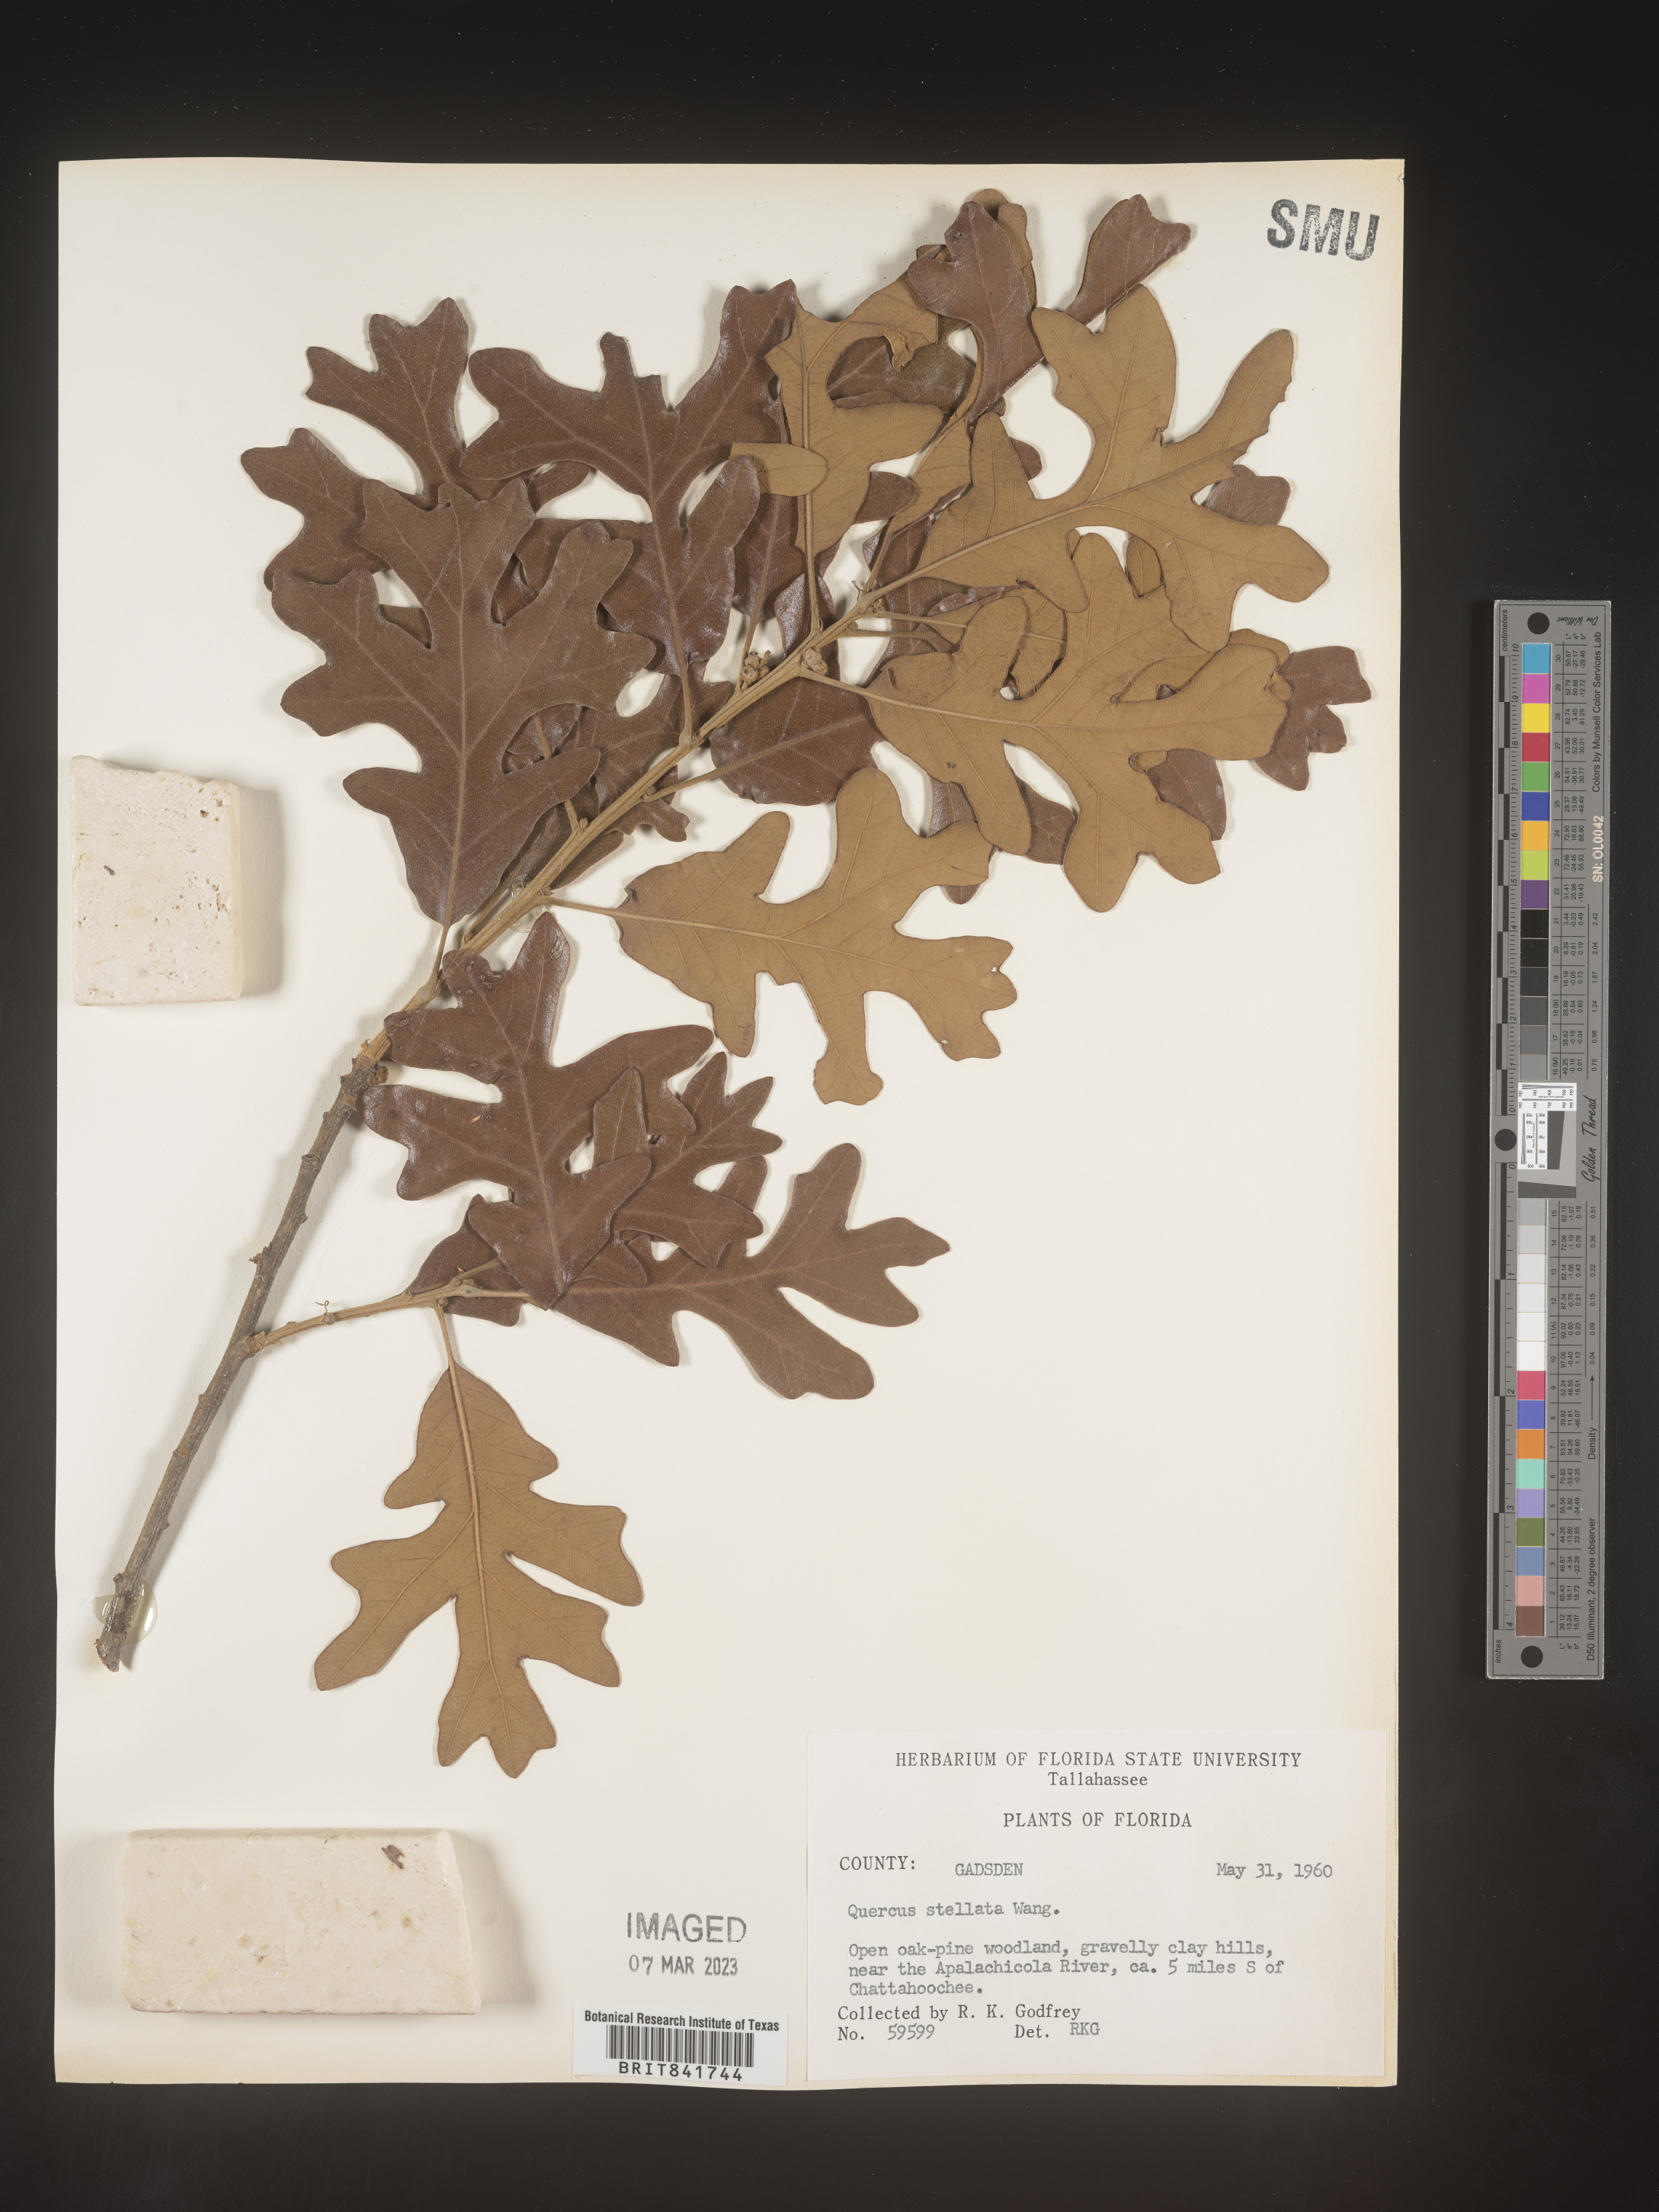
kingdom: Plantae
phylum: Tracheophyta
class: Magnoliopsida
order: Fagales
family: Fagaceae
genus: Quercus
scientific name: Quercus stellata
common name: Post oak
